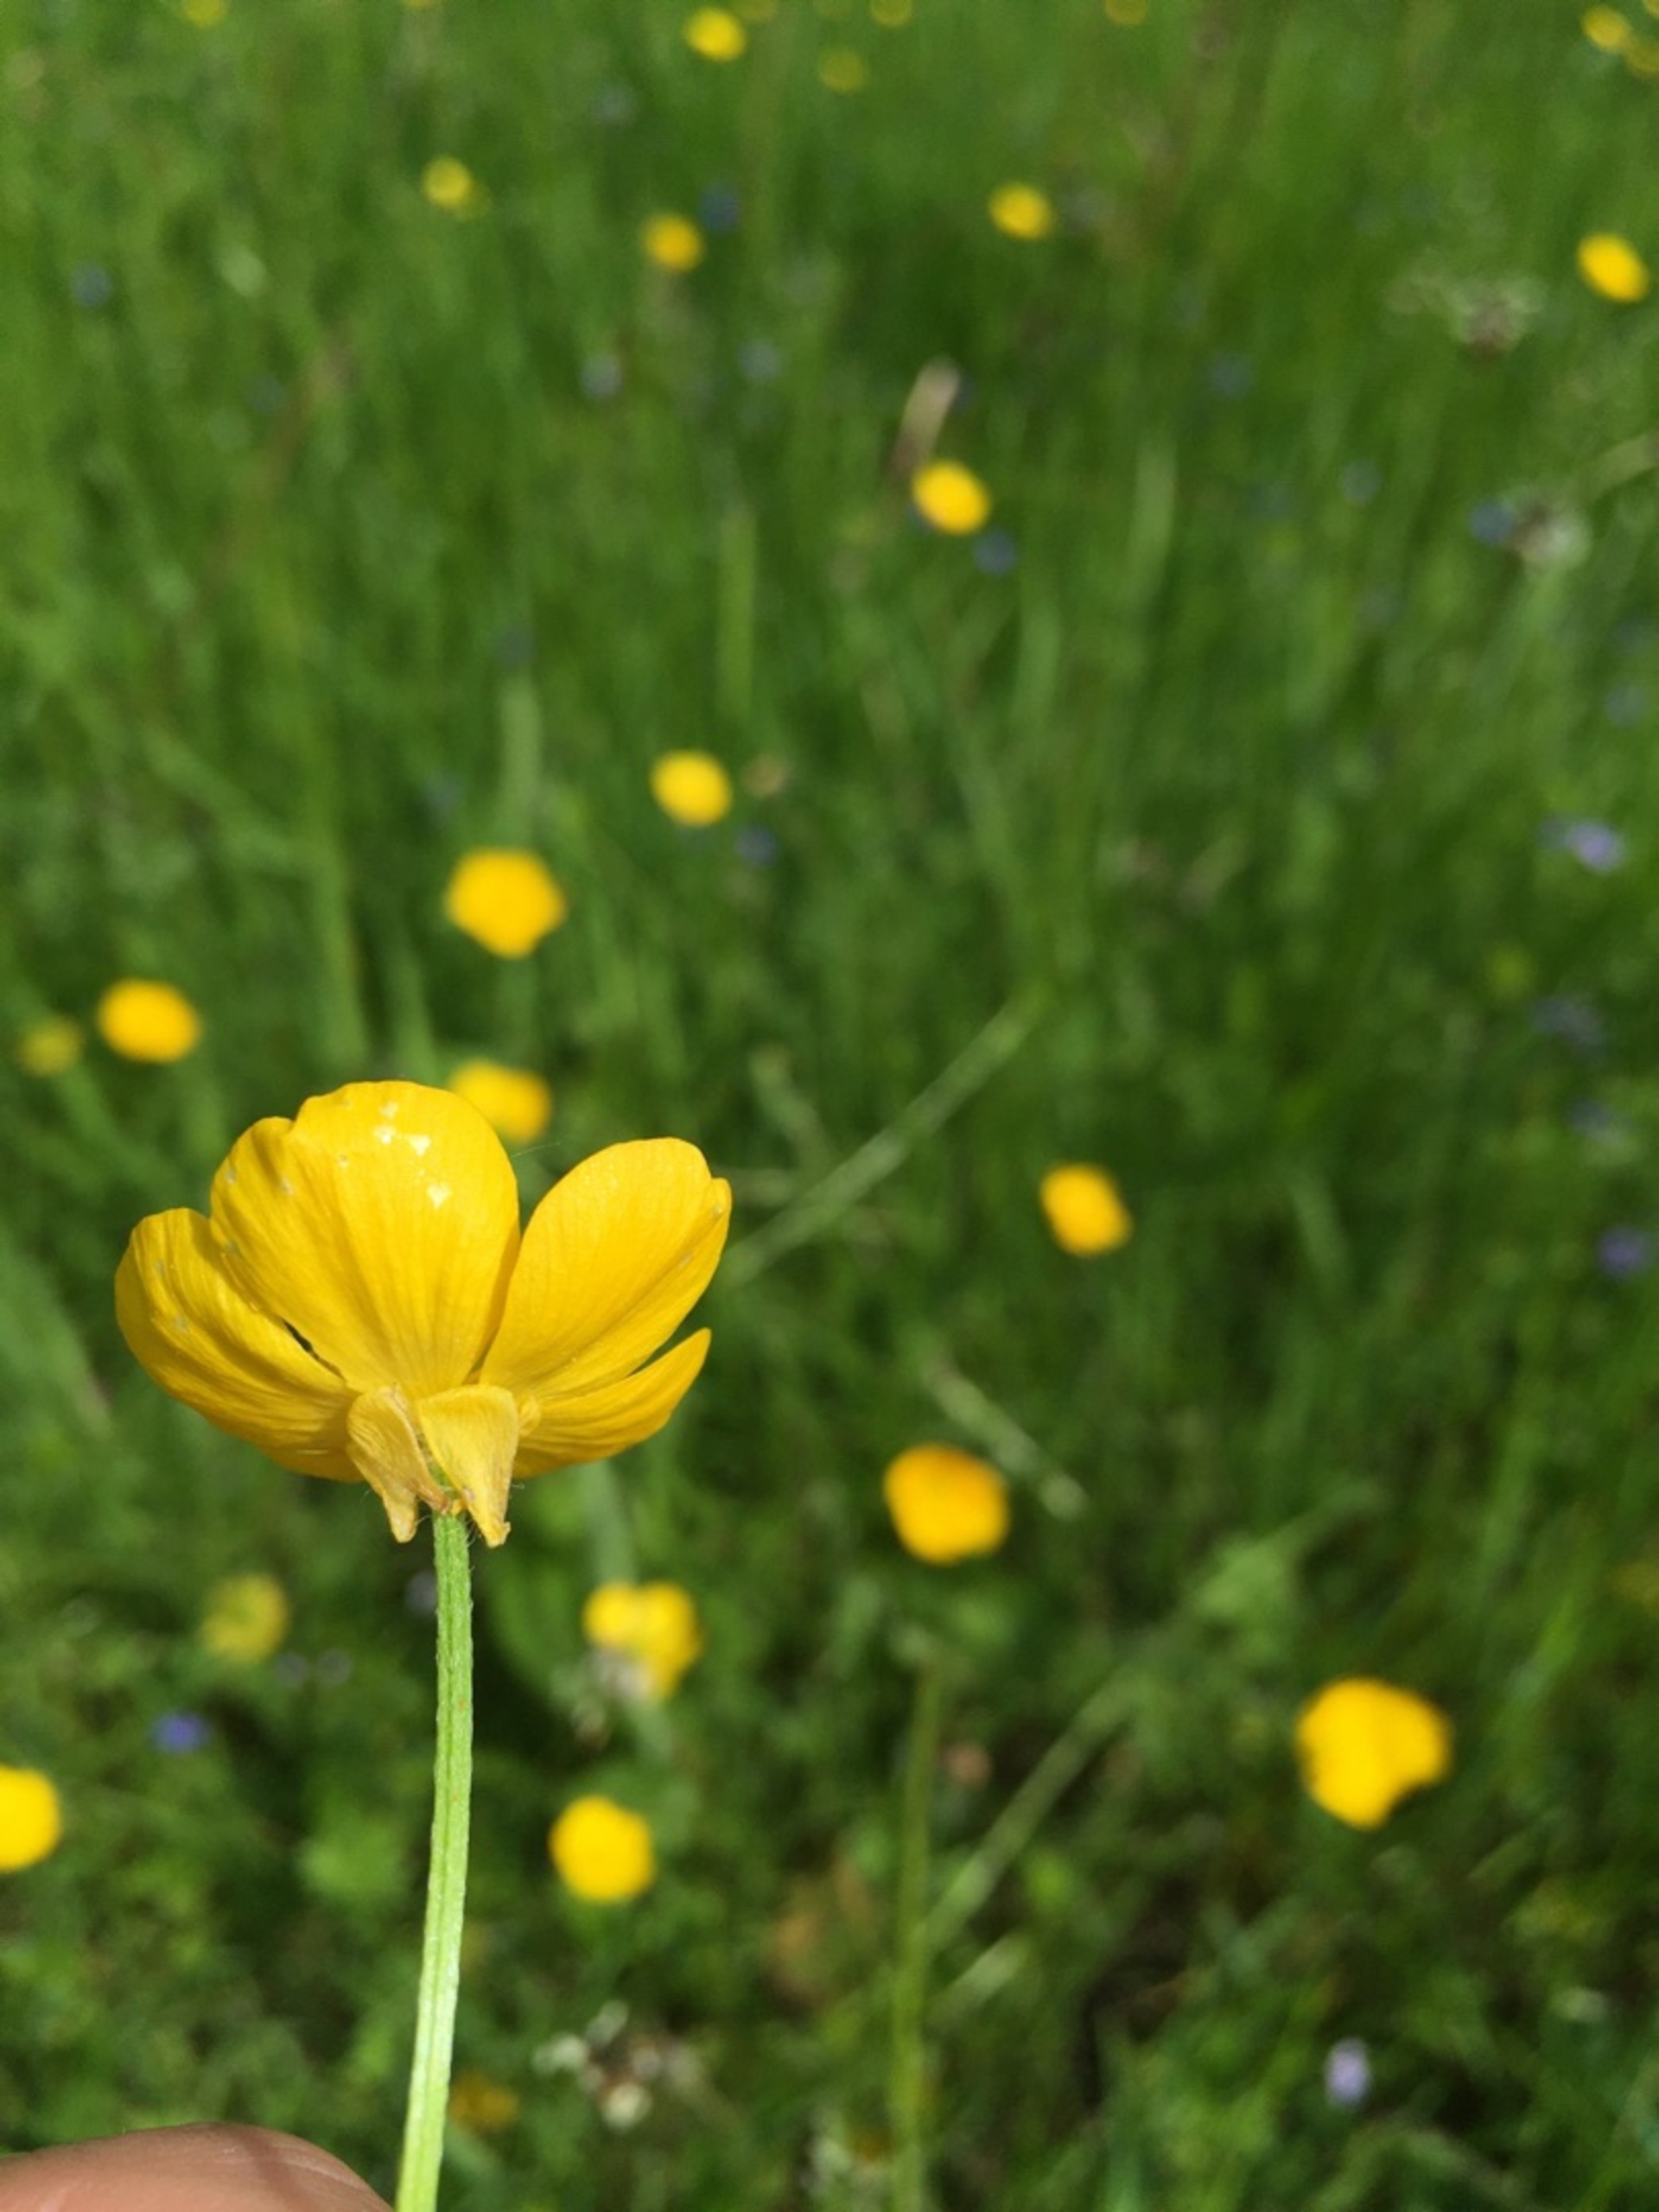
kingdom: Plantae
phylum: Tracheophyta
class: Magnoliopsida
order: Ranunculales
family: Ranunculaceae
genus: Ranunculus
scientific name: Ranunculus bulbosus
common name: Knold-ranunkel
